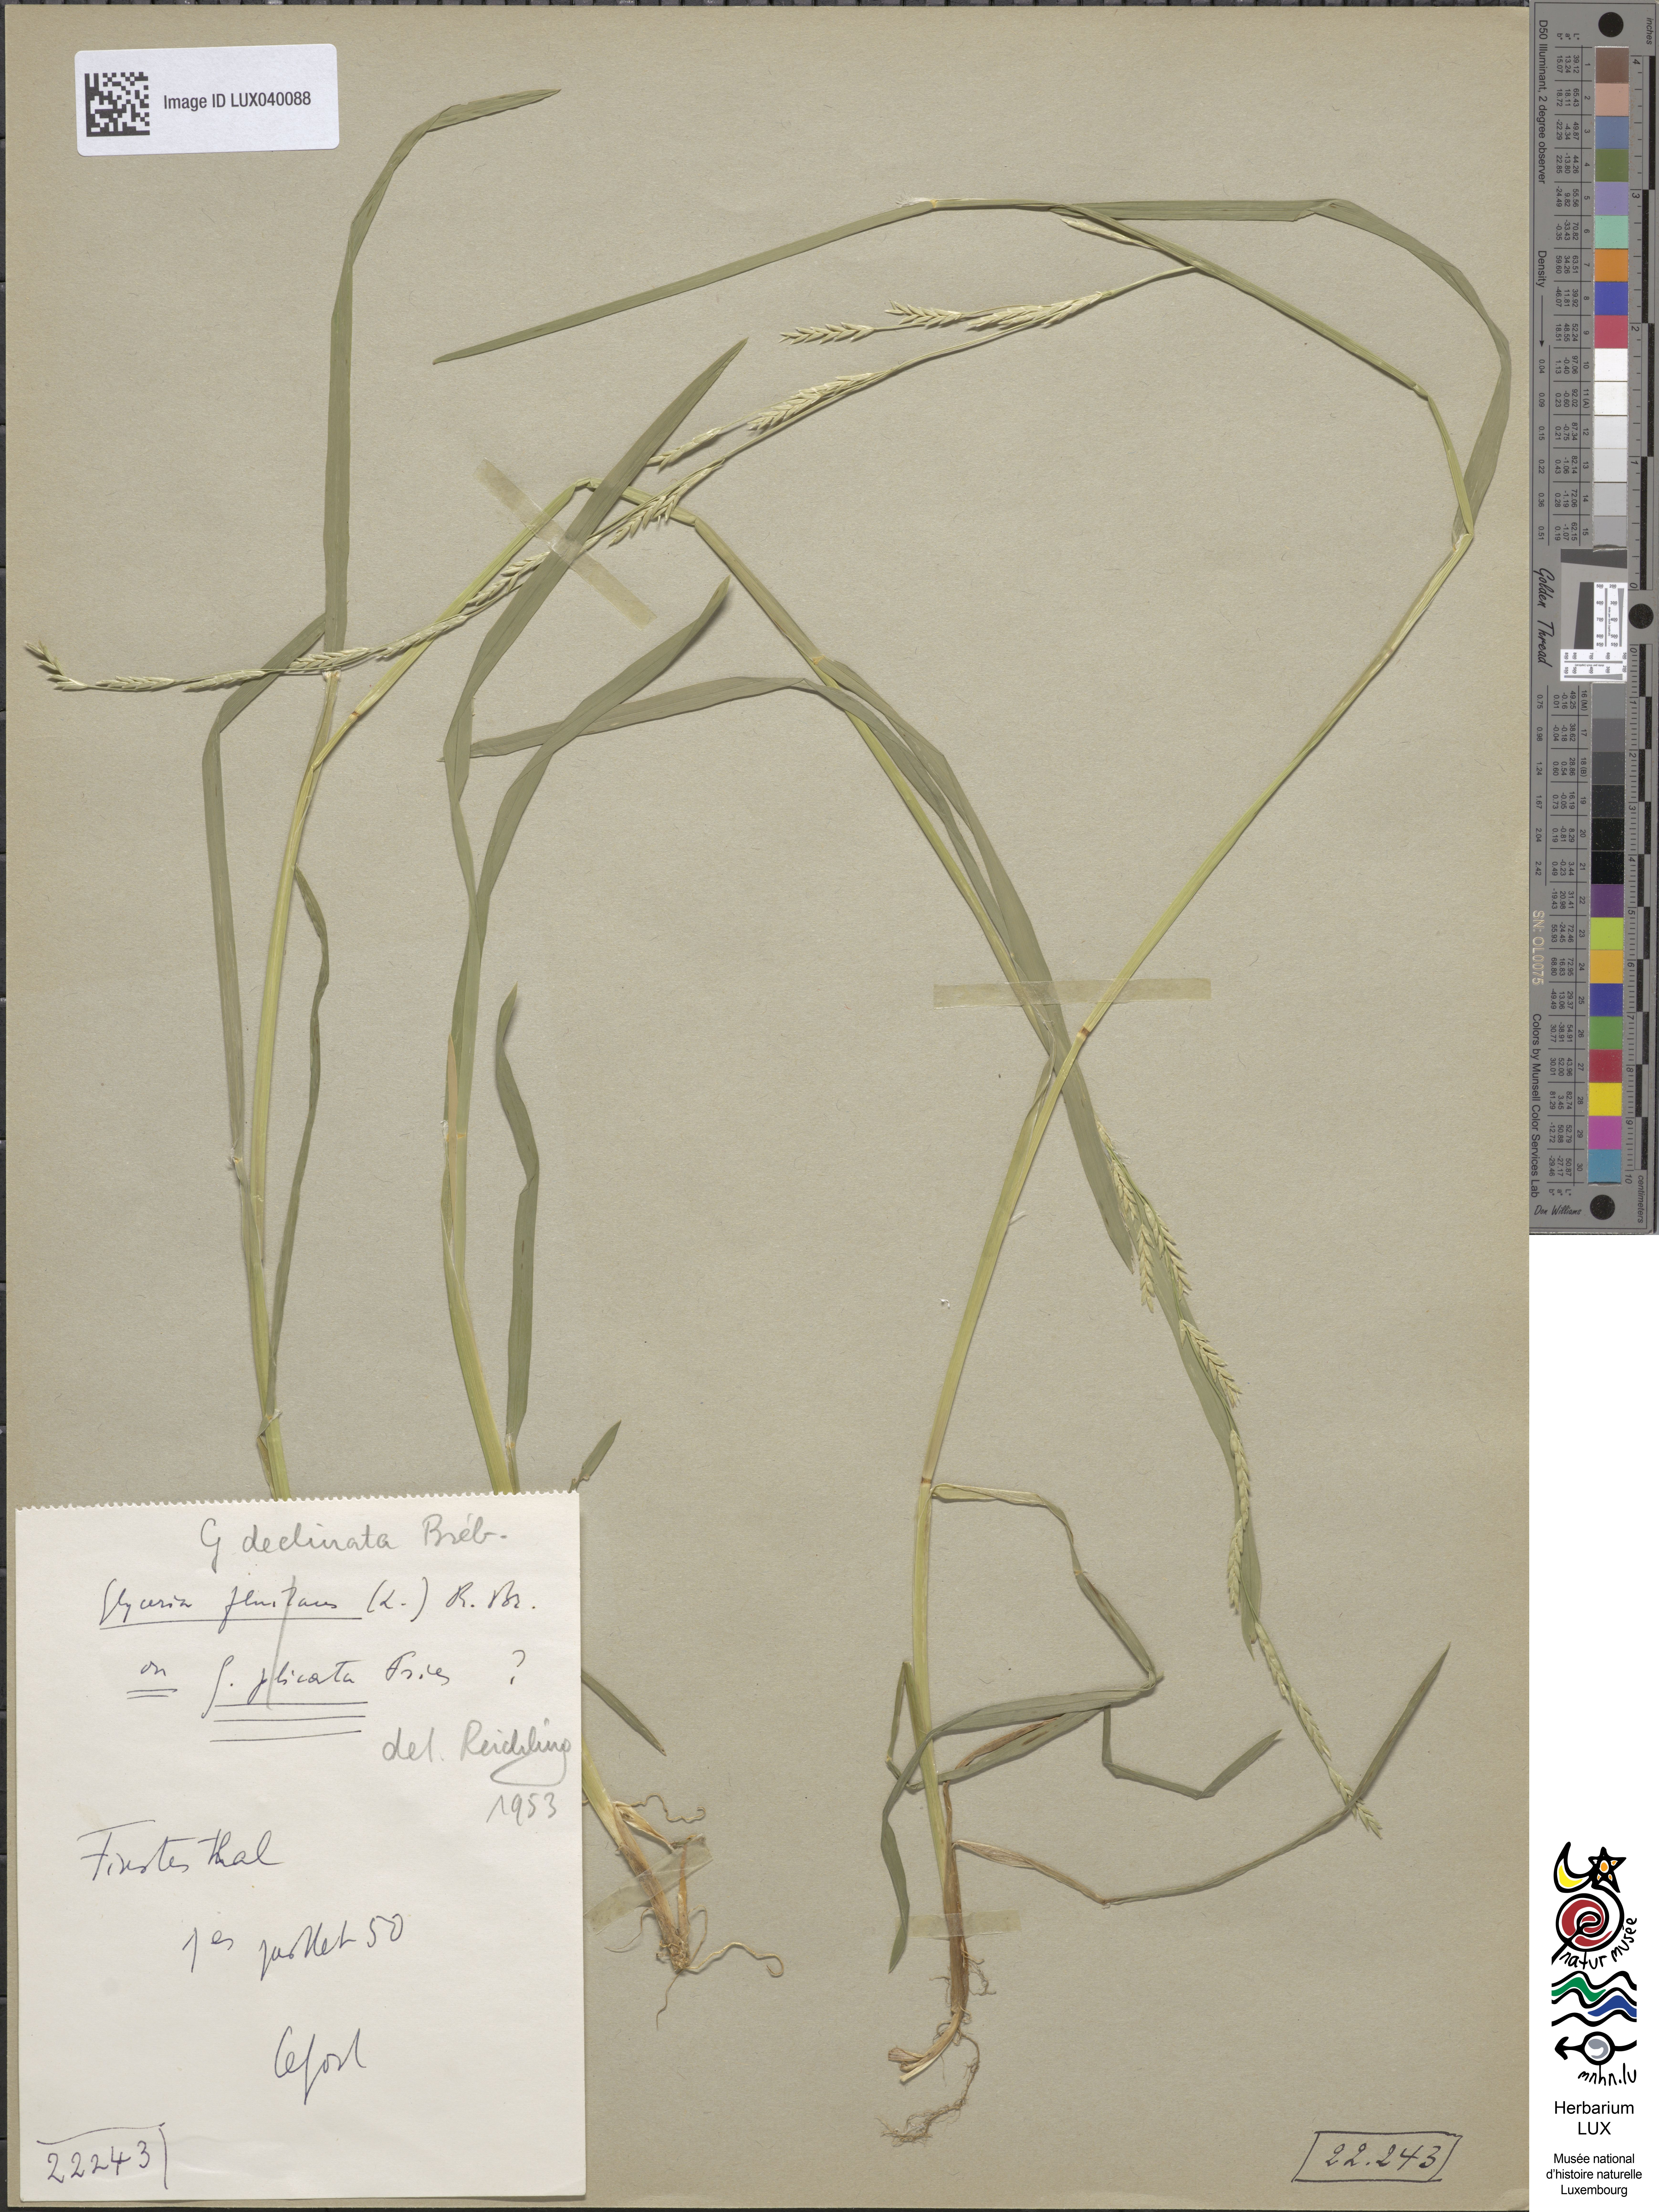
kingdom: Plantae
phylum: Tracheophyta
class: Liliopsida
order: Poales
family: Poaceae
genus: Glyceria
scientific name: Glyceria declinata
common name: Small sweet-grass
